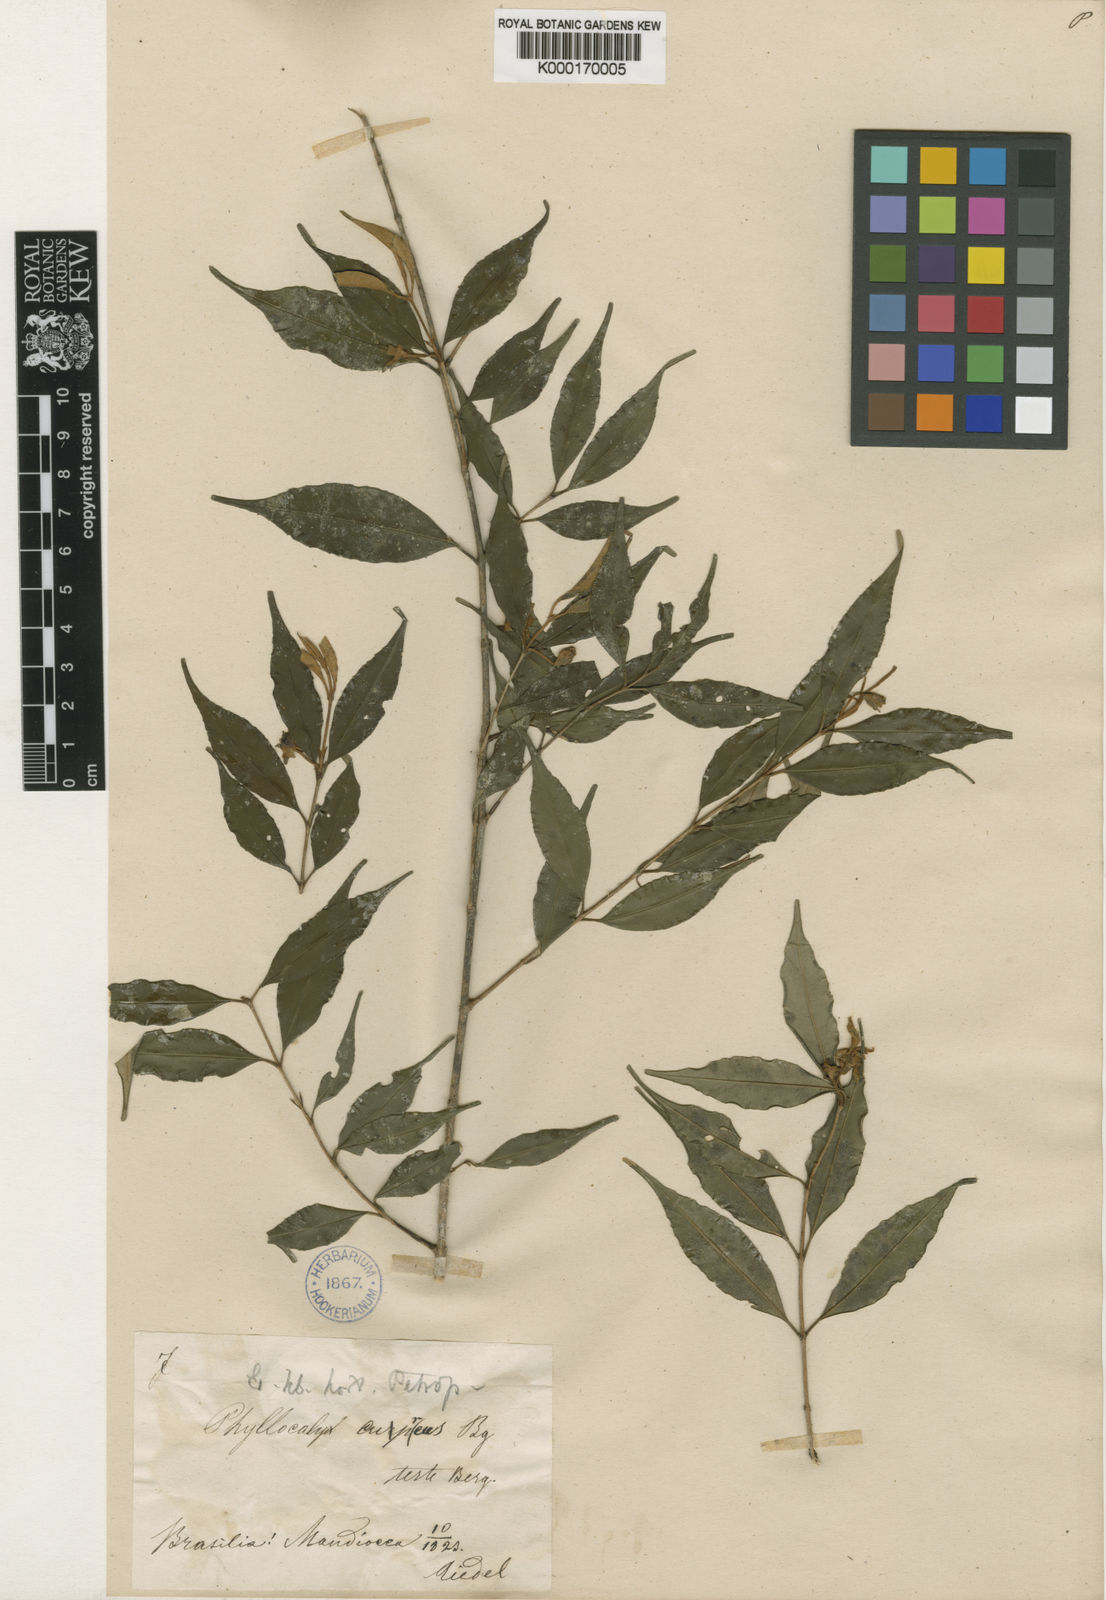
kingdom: Plantae
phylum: Tracheophyta
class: Magnoliopsida
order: Myrtales
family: Myrtaceae
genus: Eugenia
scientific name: Eugenia cuprea
